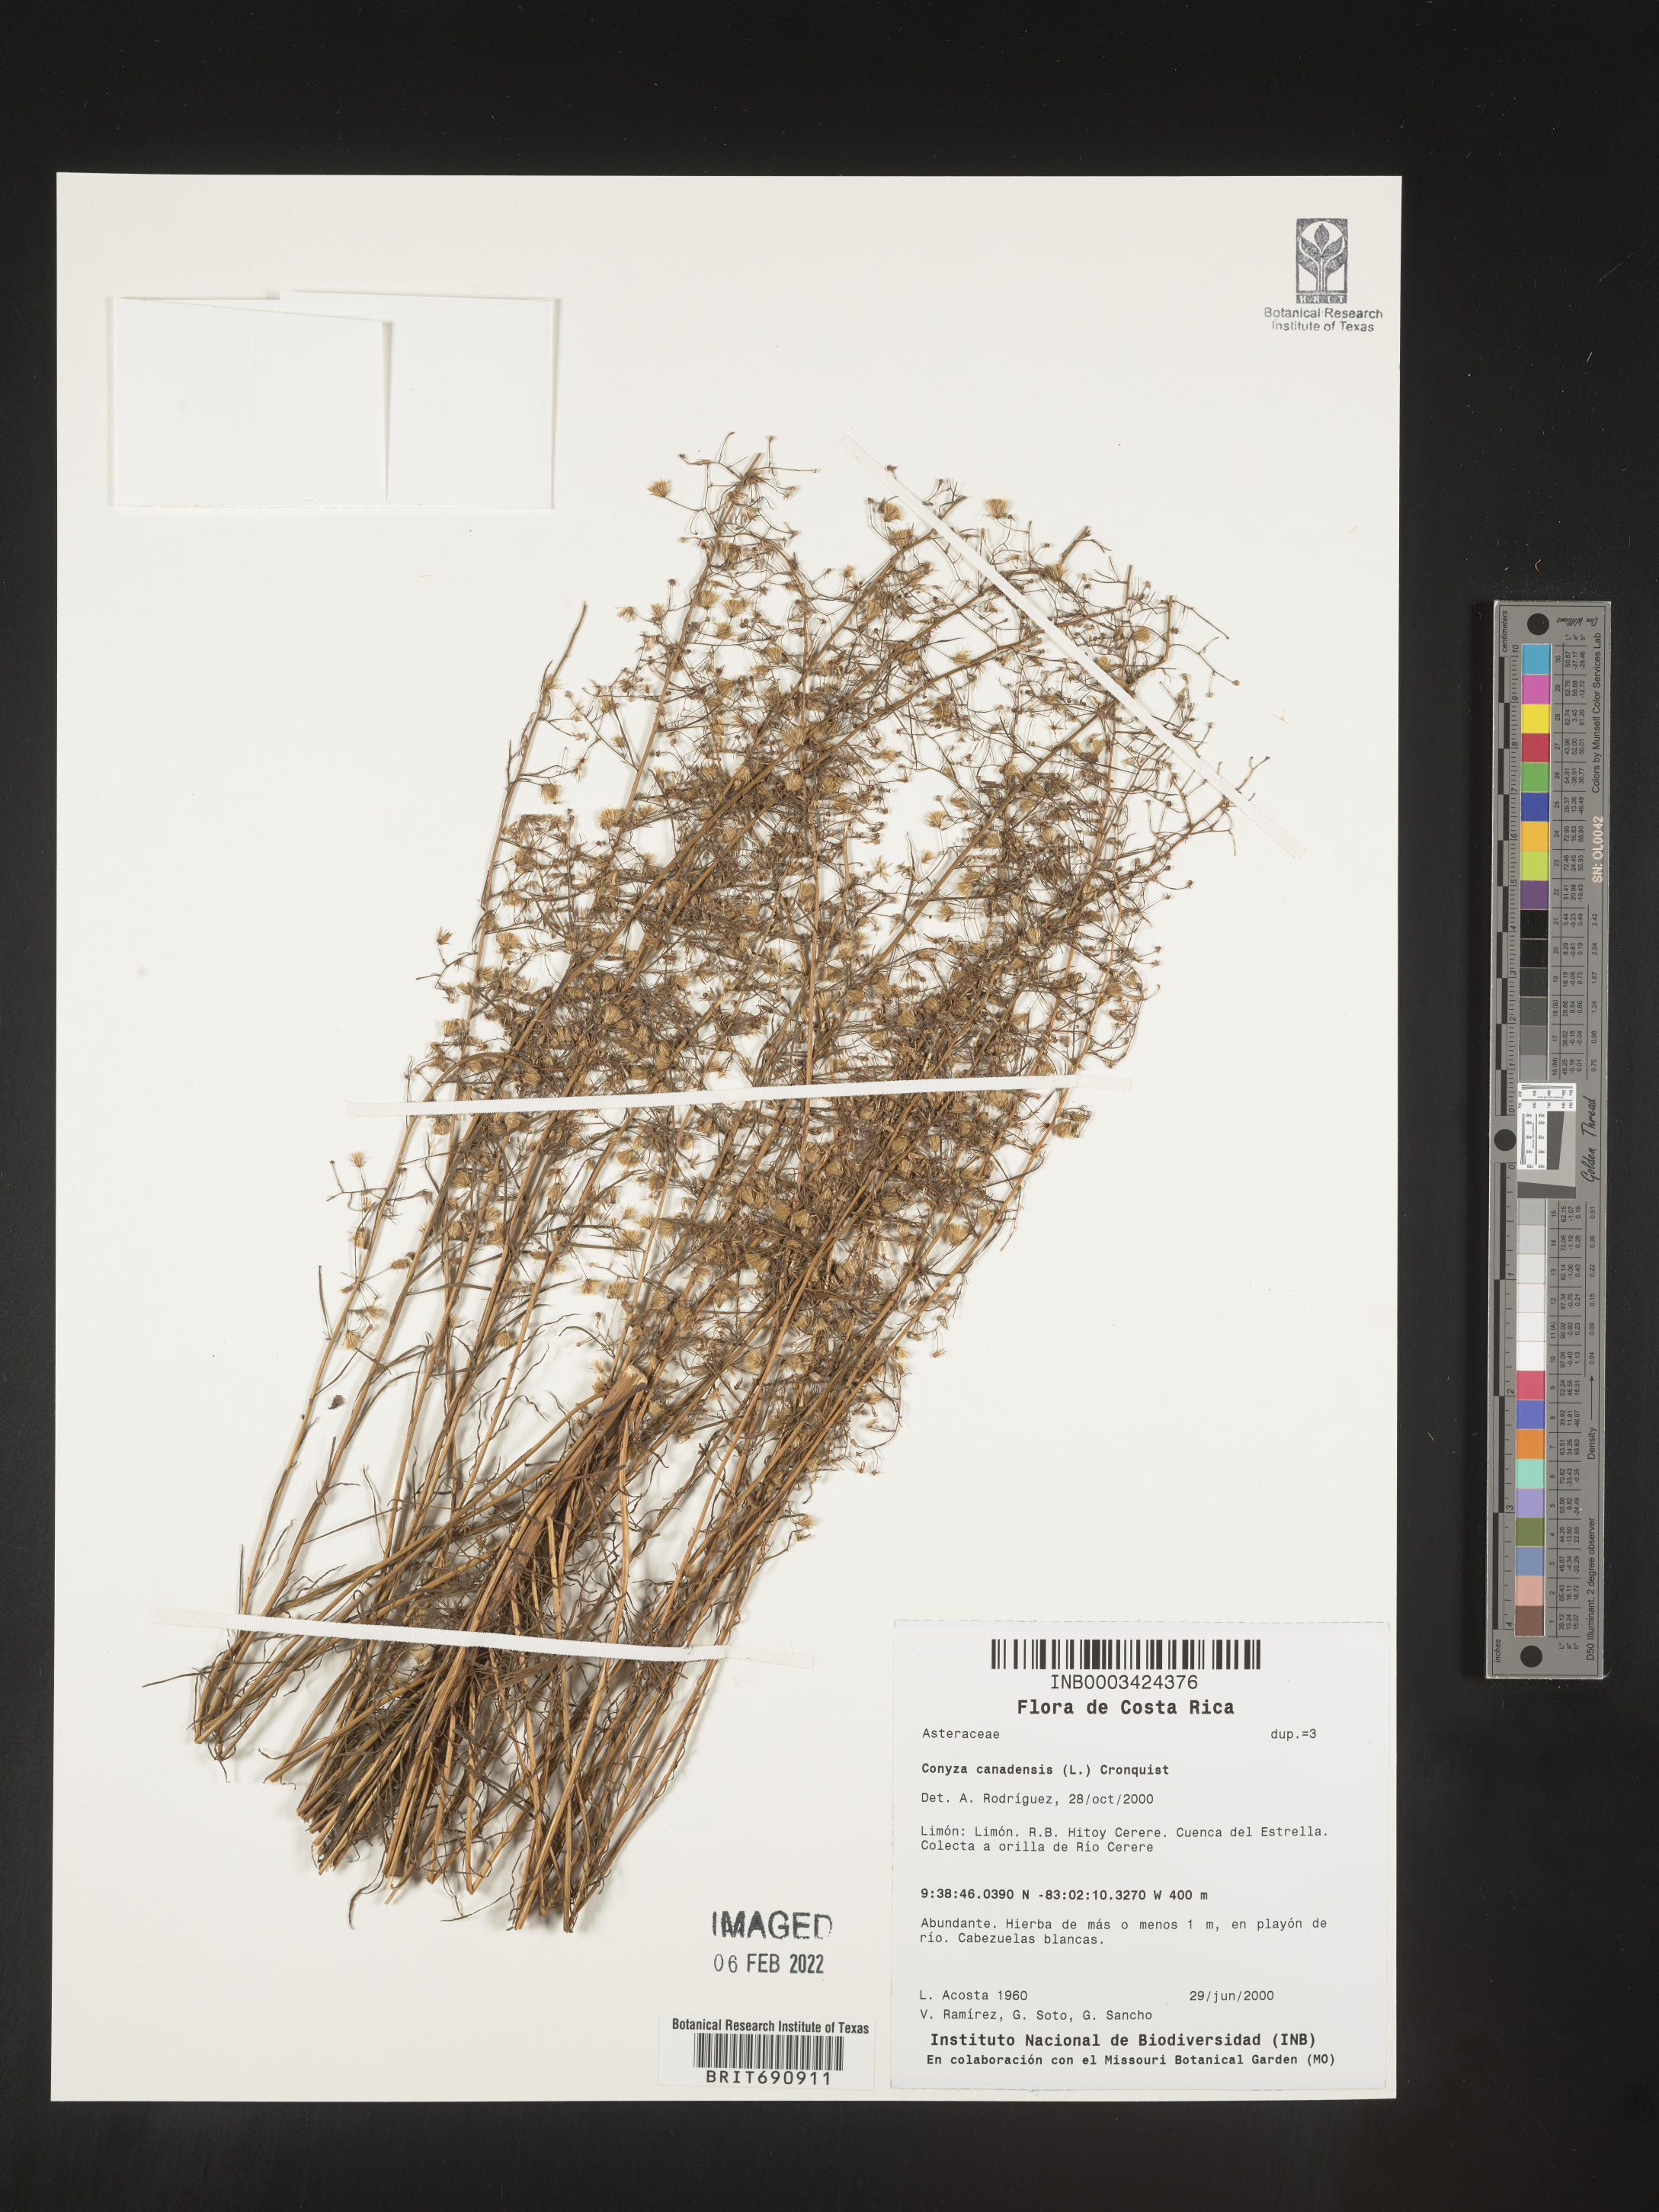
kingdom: Plantae
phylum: Tracheophyta
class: Magnoliopsida
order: Asterales
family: Asteraceae
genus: Erigeron
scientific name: Erigeron canadensis
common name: Canadian fleabane
